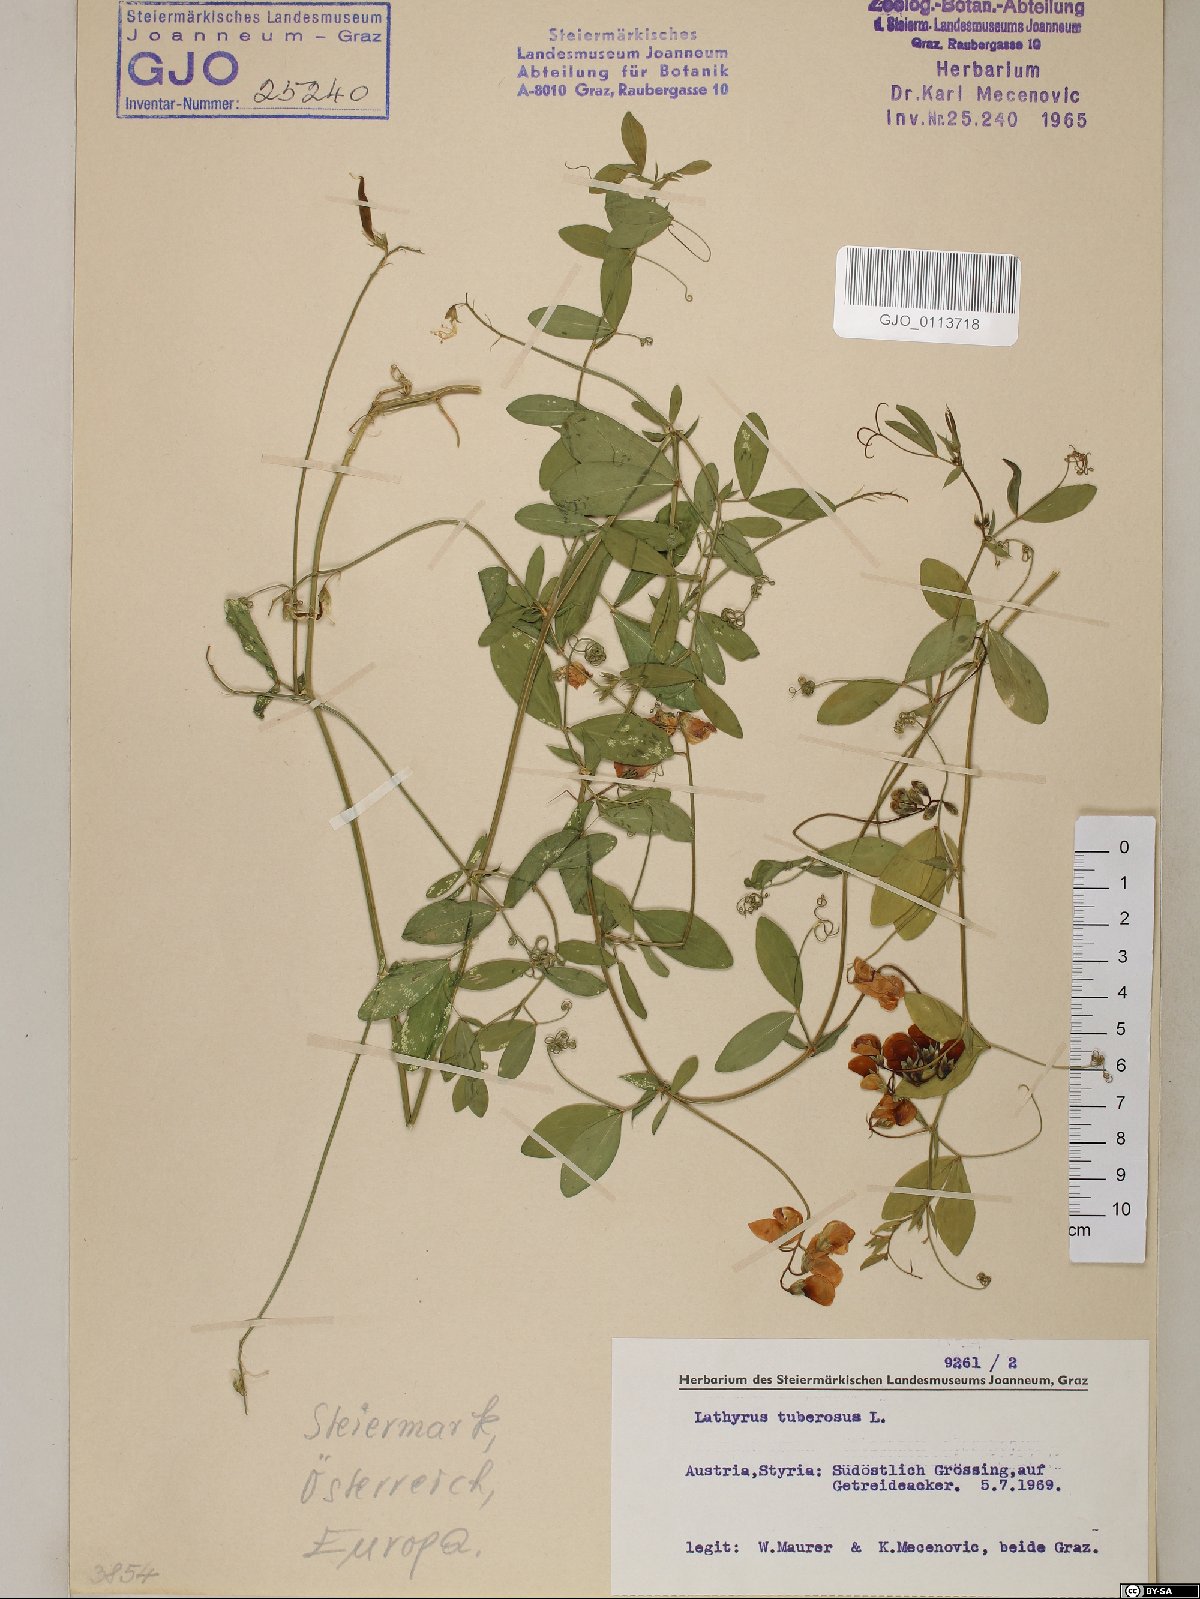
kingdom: Plantae
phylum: Tracheophyta
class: Magnoliopsida
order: Fabales
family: Fabaceae
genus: Lathyrus
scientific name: Lathyrus tuberosus
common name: Tuberous pea
